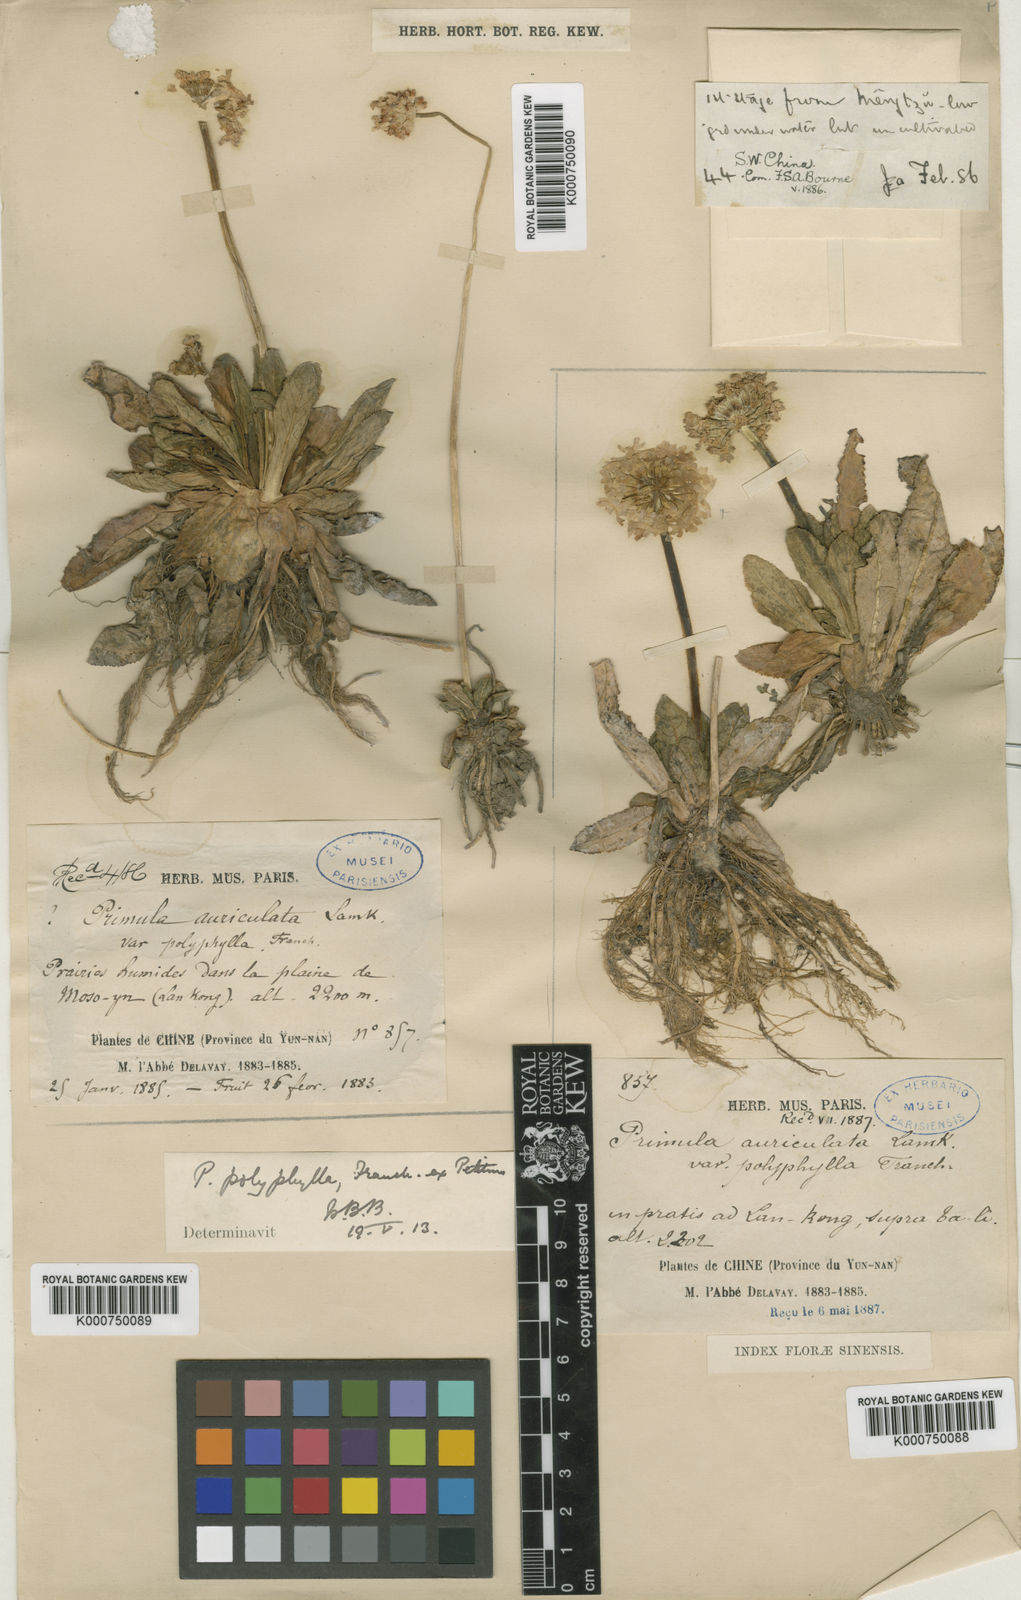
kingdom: Plantae
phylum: Tracheophyta
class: Magnoliopsida
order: Ericales
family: Primulaceae
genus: Primula
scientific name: Primula pseudodenticulata
